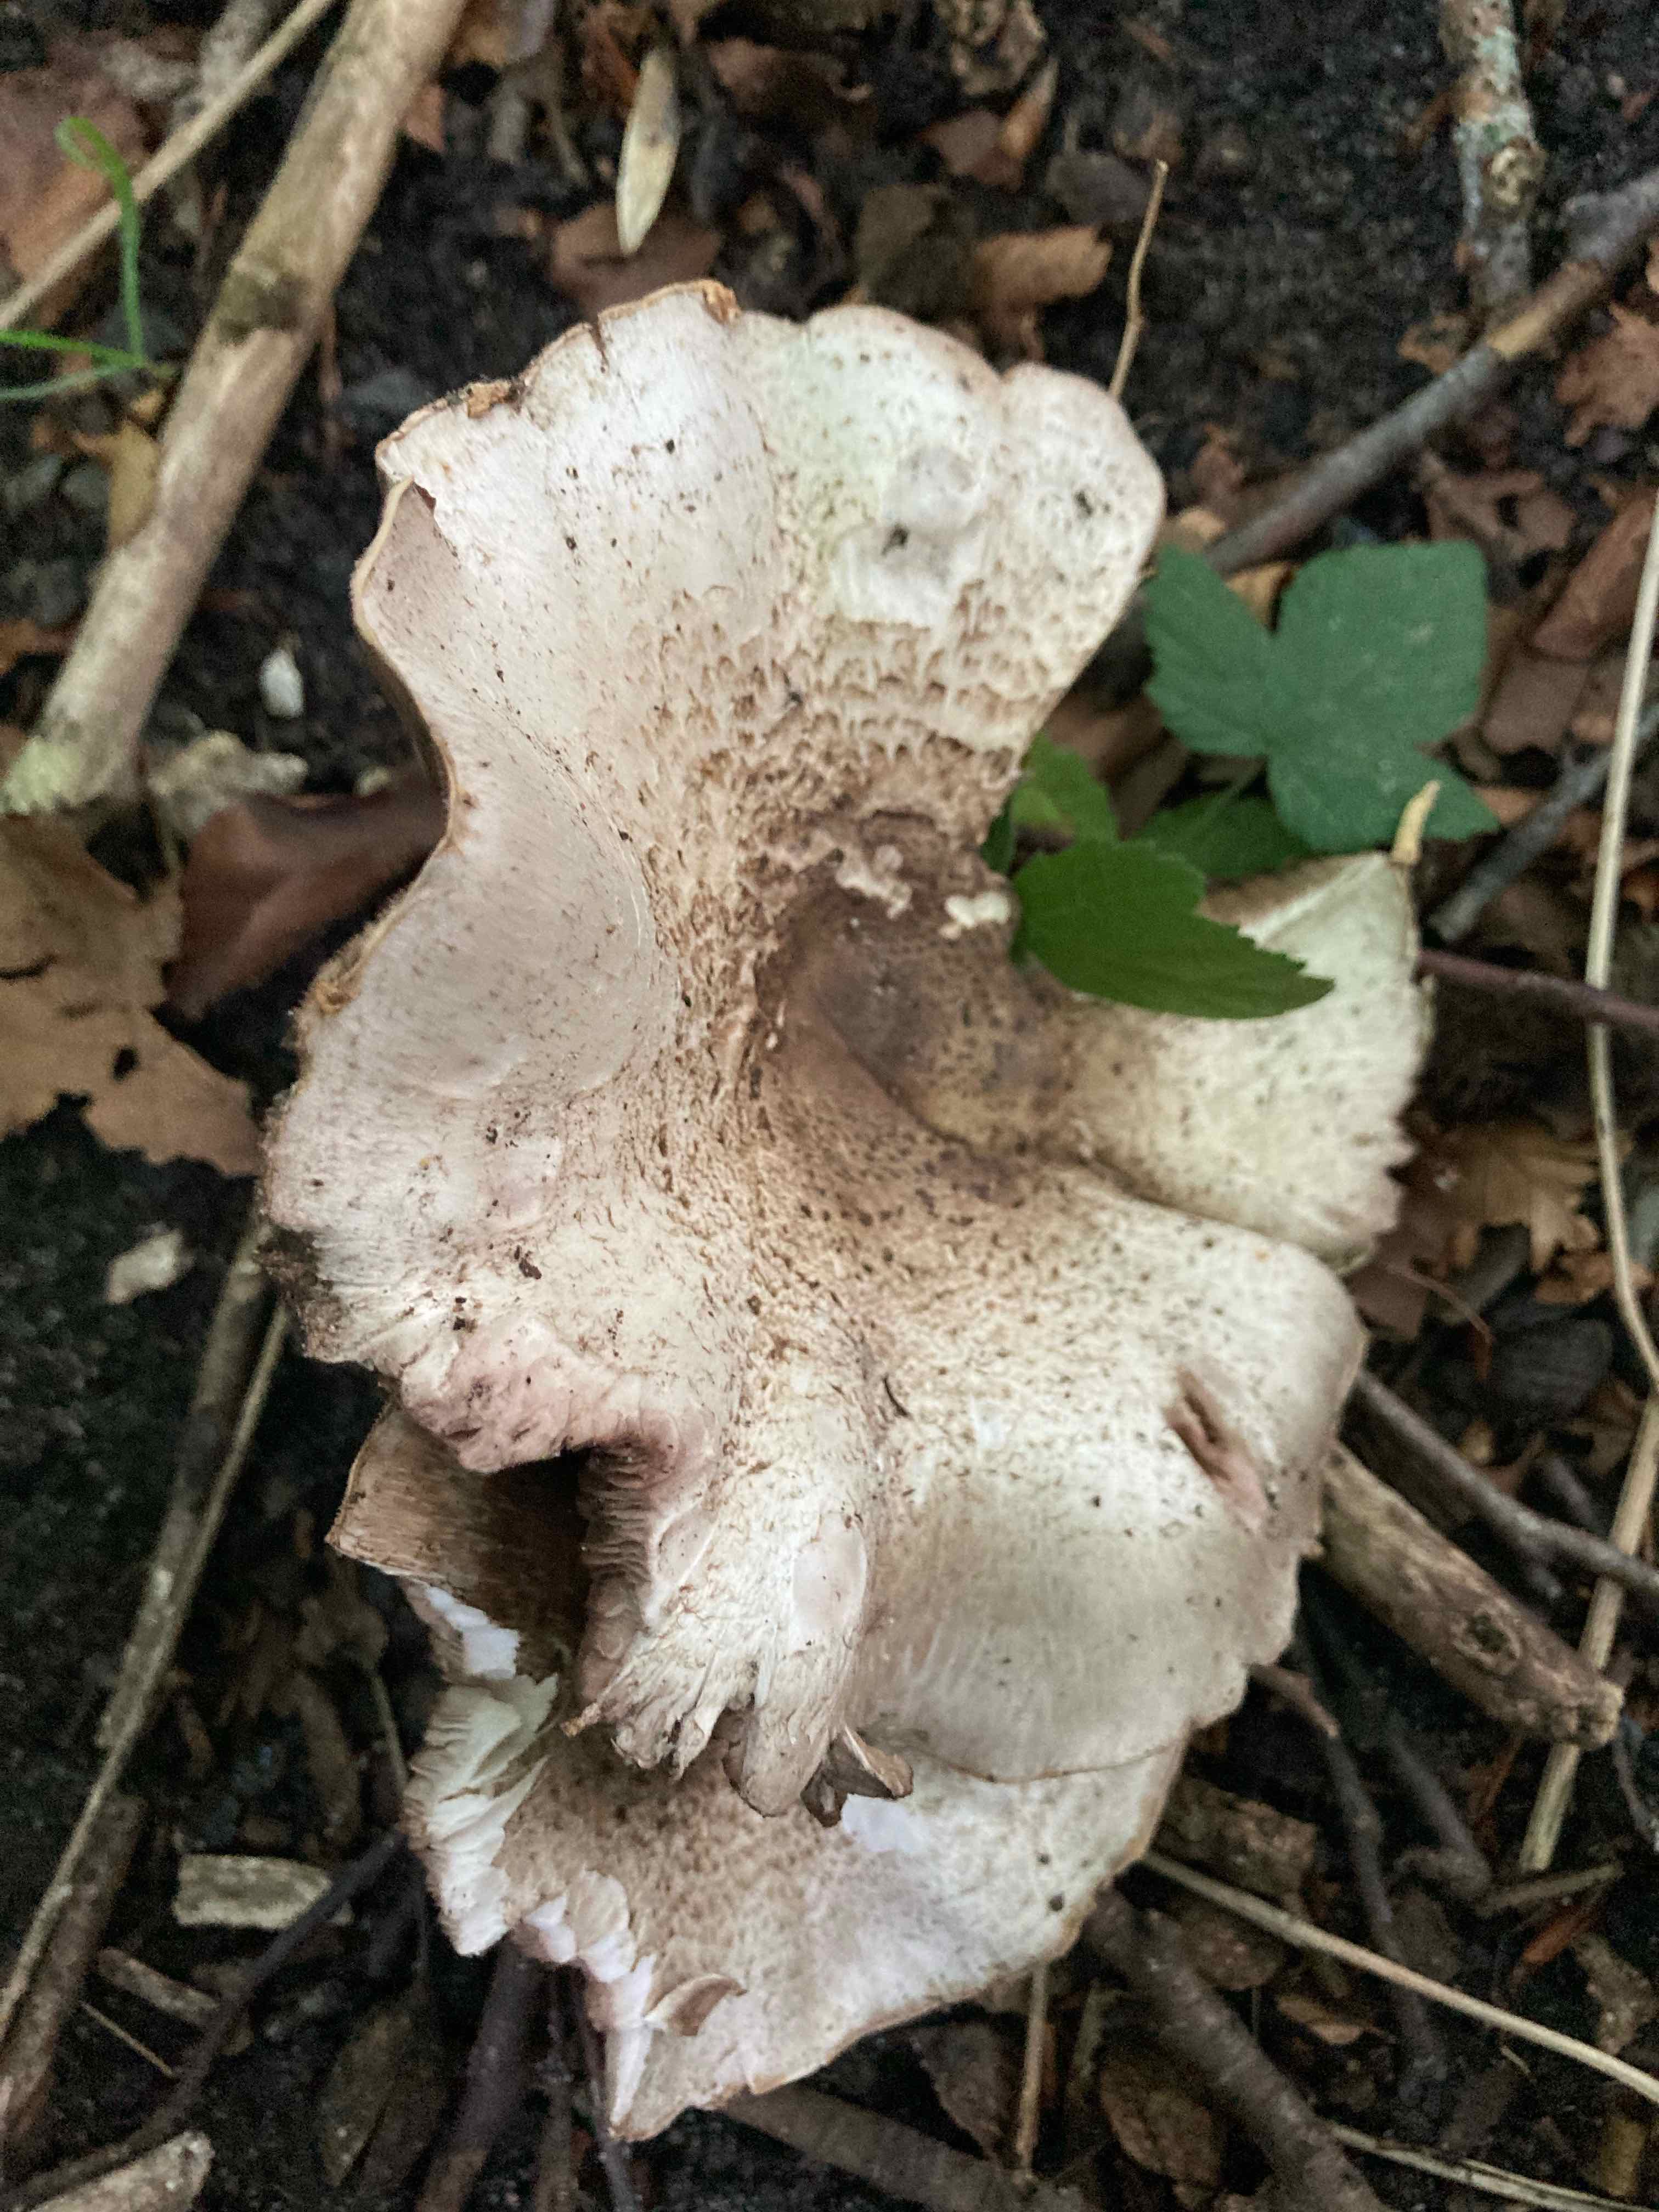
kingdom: Fungi
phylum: Basidiomycota
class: Agaricomycetes
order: Agaricales
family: Agaricaceae
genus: Agaricus
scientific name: Agaricus moelleri
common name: perlehøne-champignon
